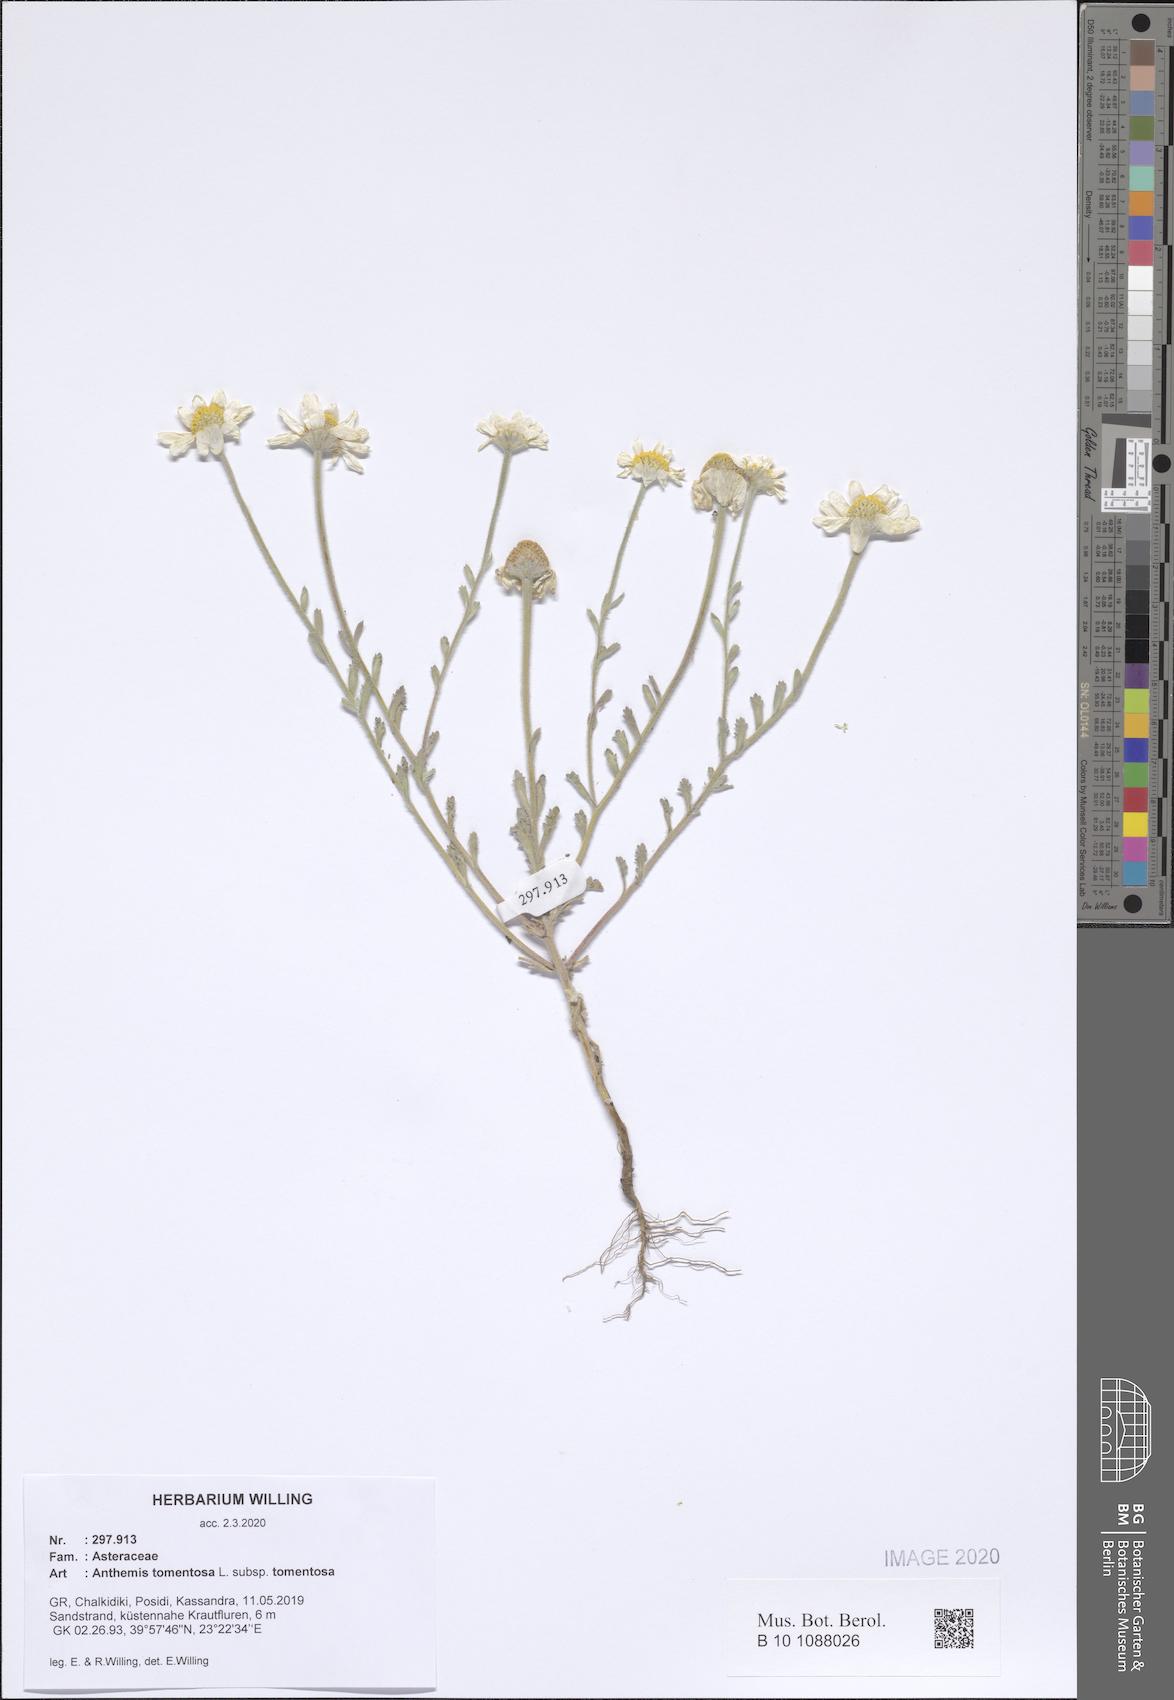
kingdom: Plantae
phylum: Tracheophyta
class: Magnoliopsida
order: Asterales
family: Asteraceae
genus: Anthemis
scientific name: Anthemis tomentosa
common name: Woolly chamomile
